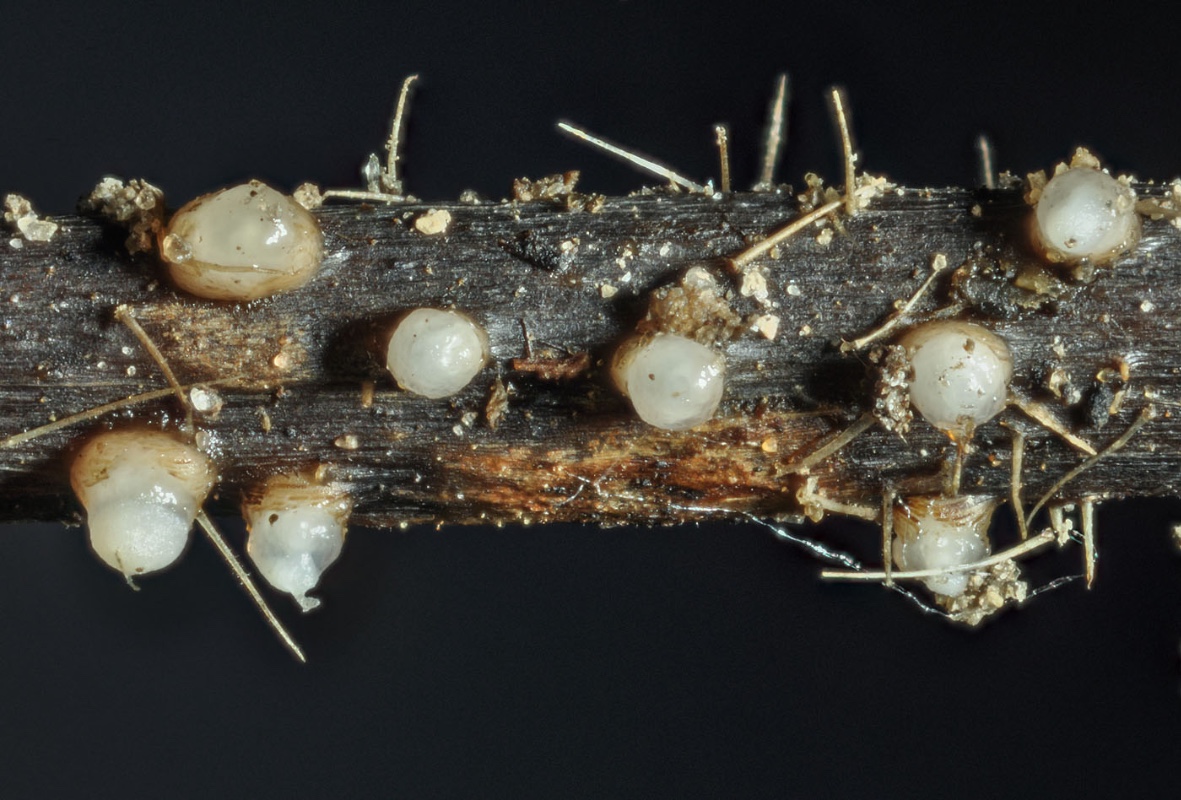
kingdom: Fungi
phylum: Basidiomycota
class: Agaricomycetes
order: Sebacinales
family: Sebacinaceae
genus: Chaetospermum
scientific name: Chaetospermum chaetosporum
